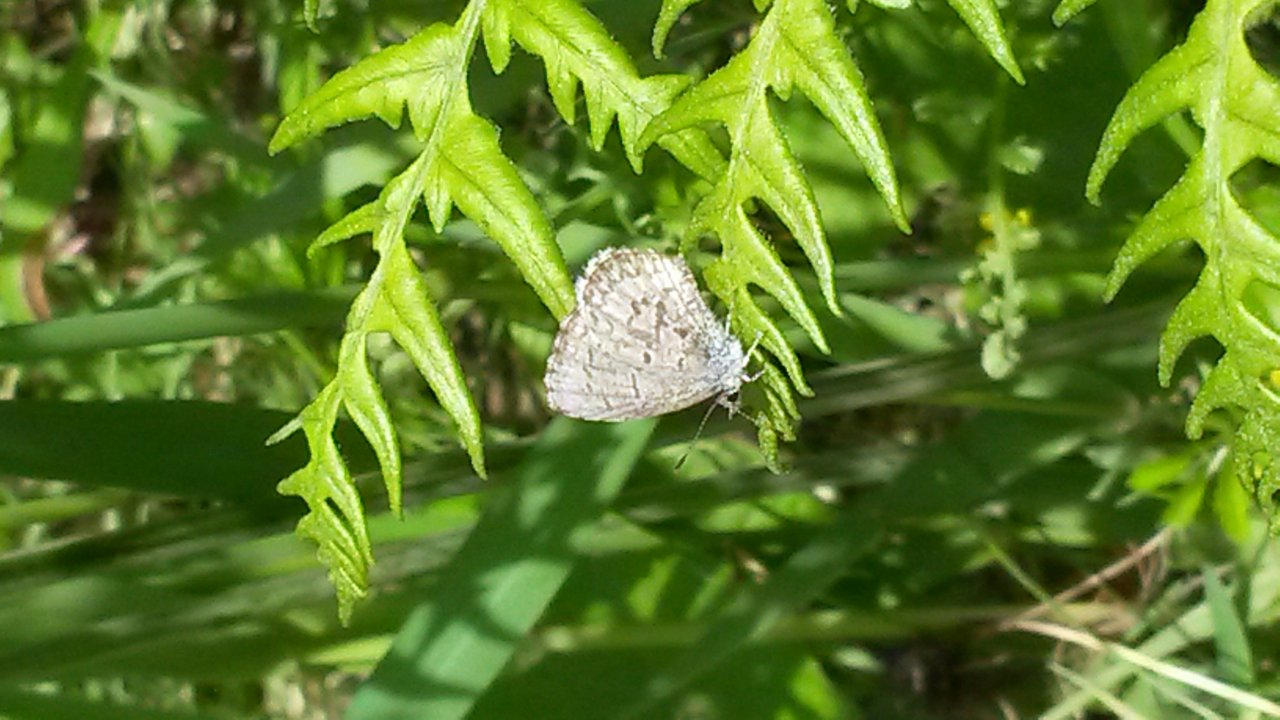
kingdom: Animalia
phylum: Arthropoda
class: Insecta
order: Lepidoptera
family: Lycaenidae
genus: Celastrina
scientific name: Celastrina lucia
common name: Northern Spring Azure
